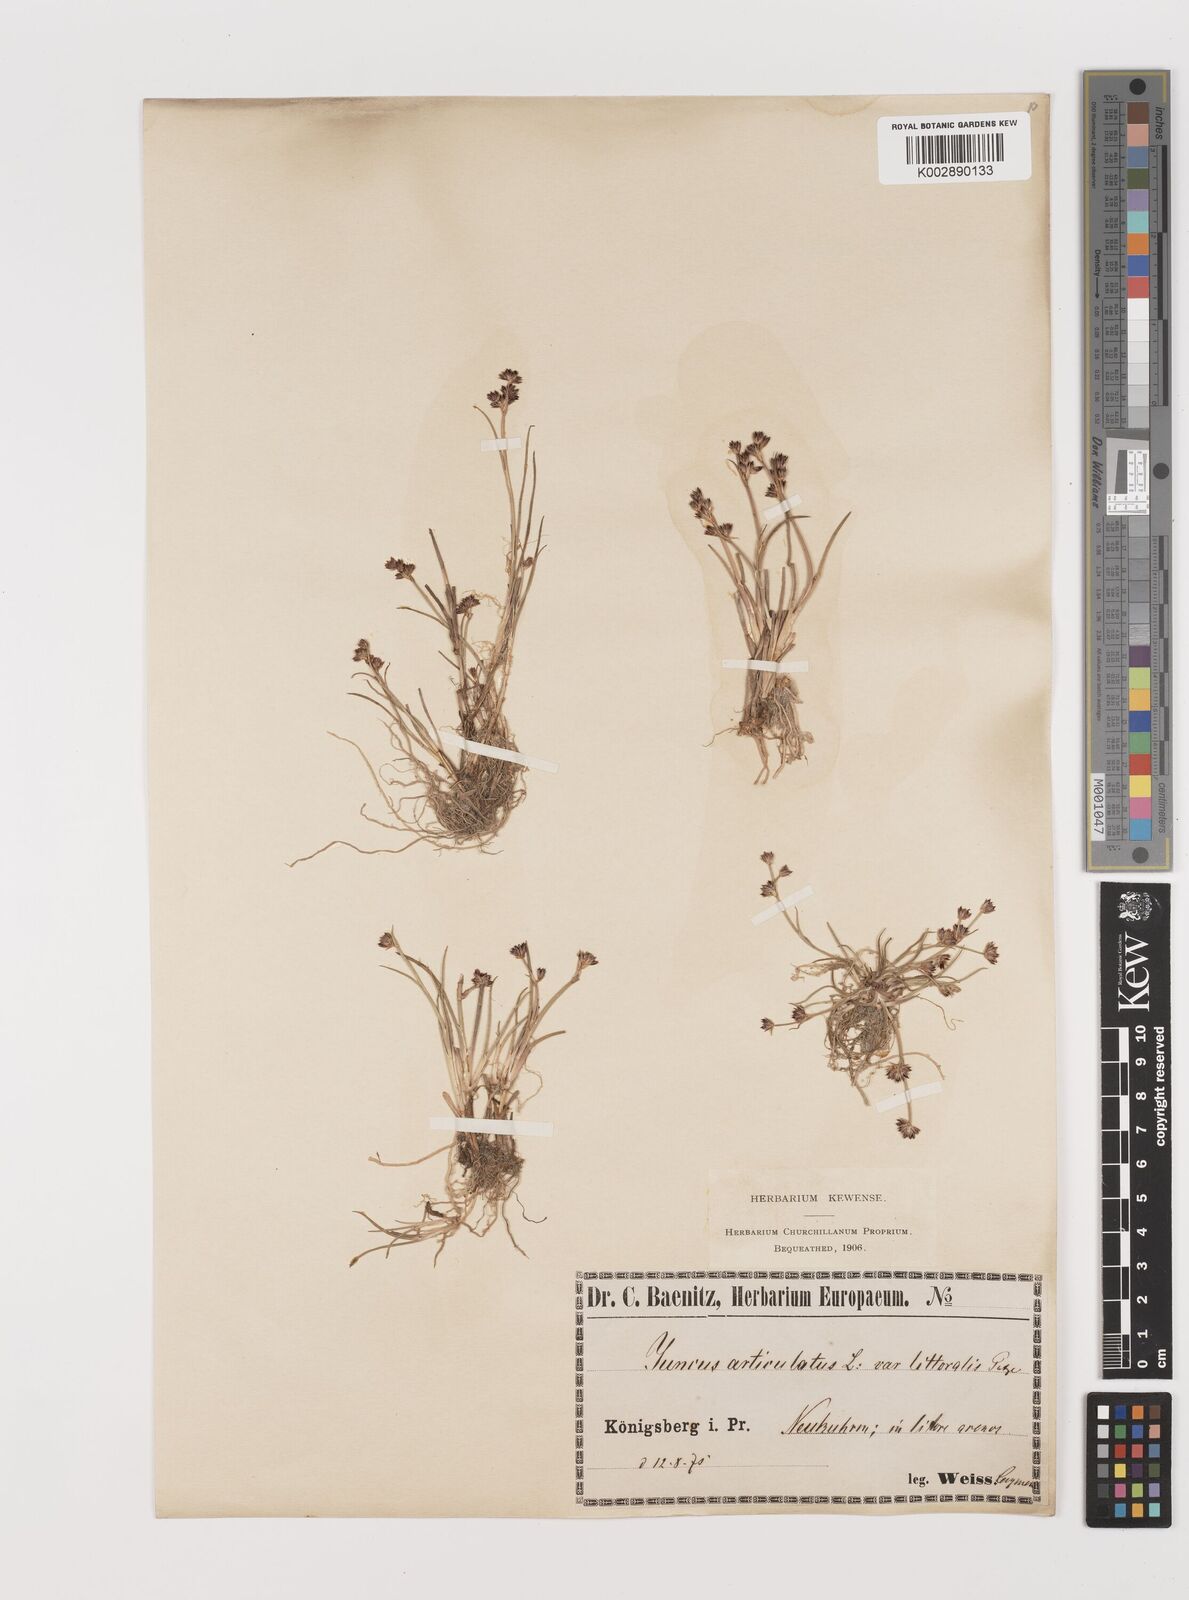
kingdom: Plantae
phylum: Tracheophyta
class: Liliopsida
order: Poales
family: Juncaceae
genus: Juncus
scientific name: Juncus articulatus
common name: Jointed rush
